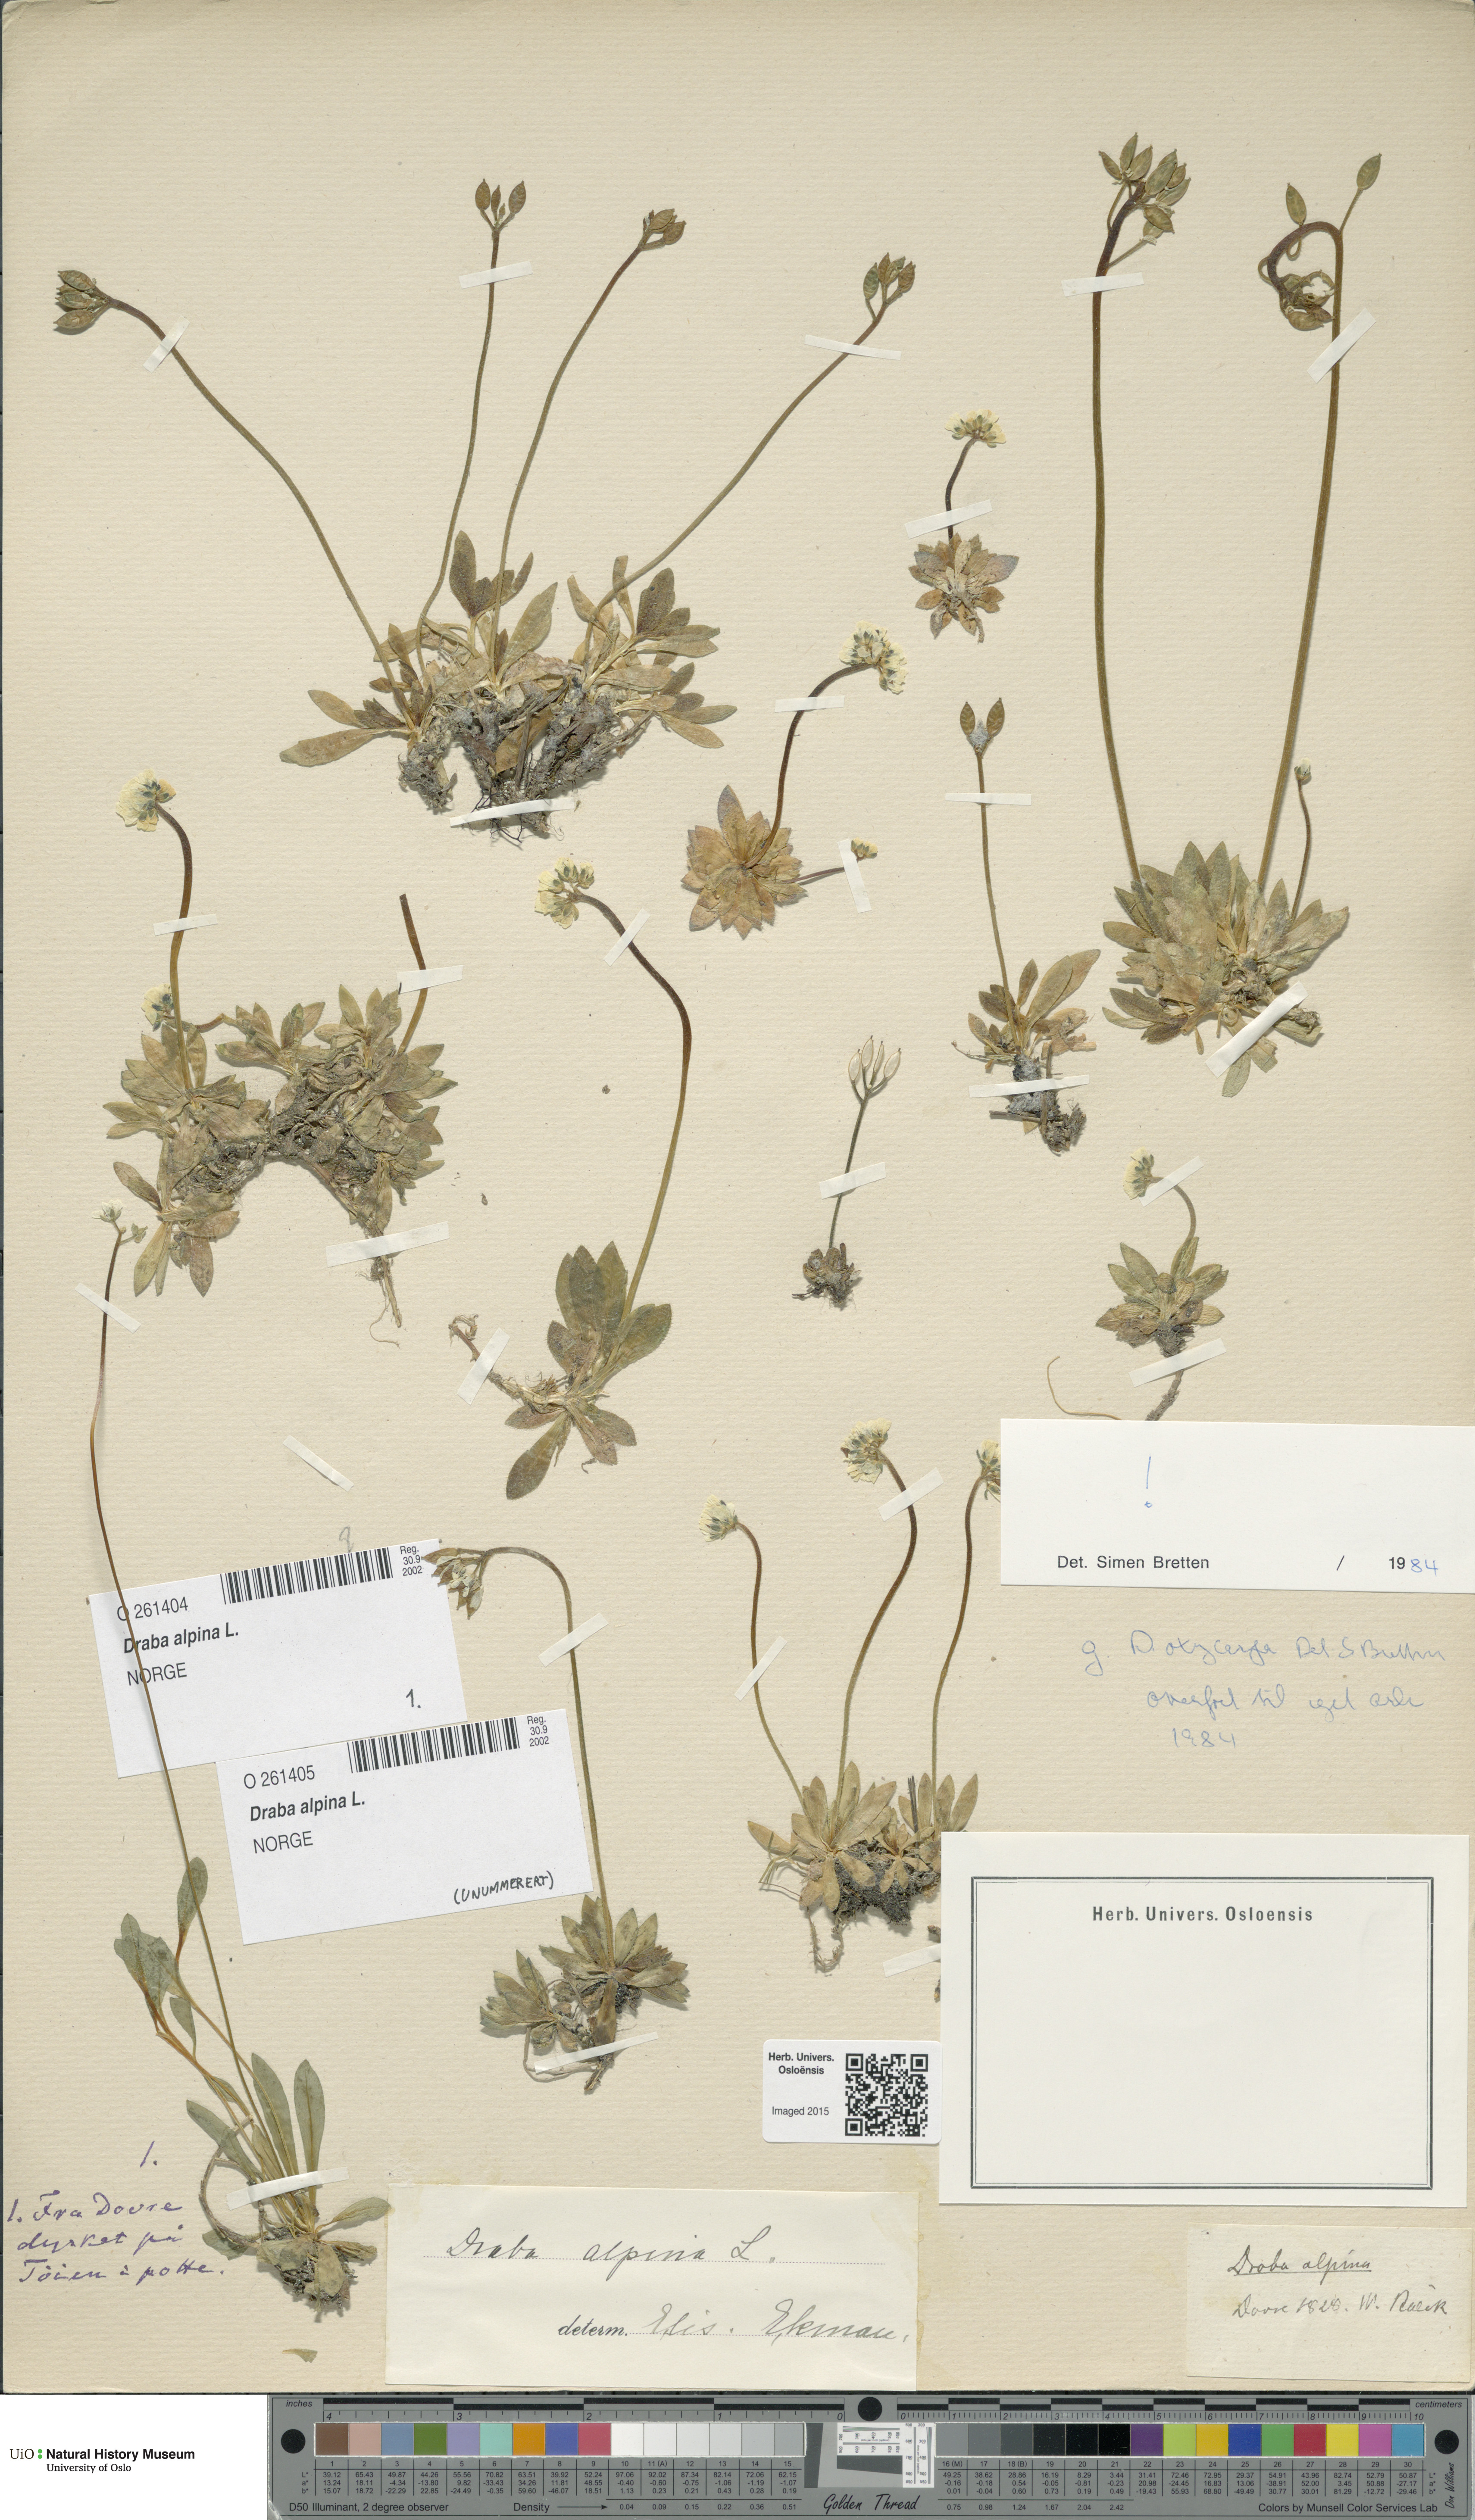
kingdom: Plantae
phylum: Tracheophyta
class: Magnoliopsida
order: Brassicales
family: Brassicaceae
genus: Draba
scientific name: Draba alpina
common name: Alpine draba
